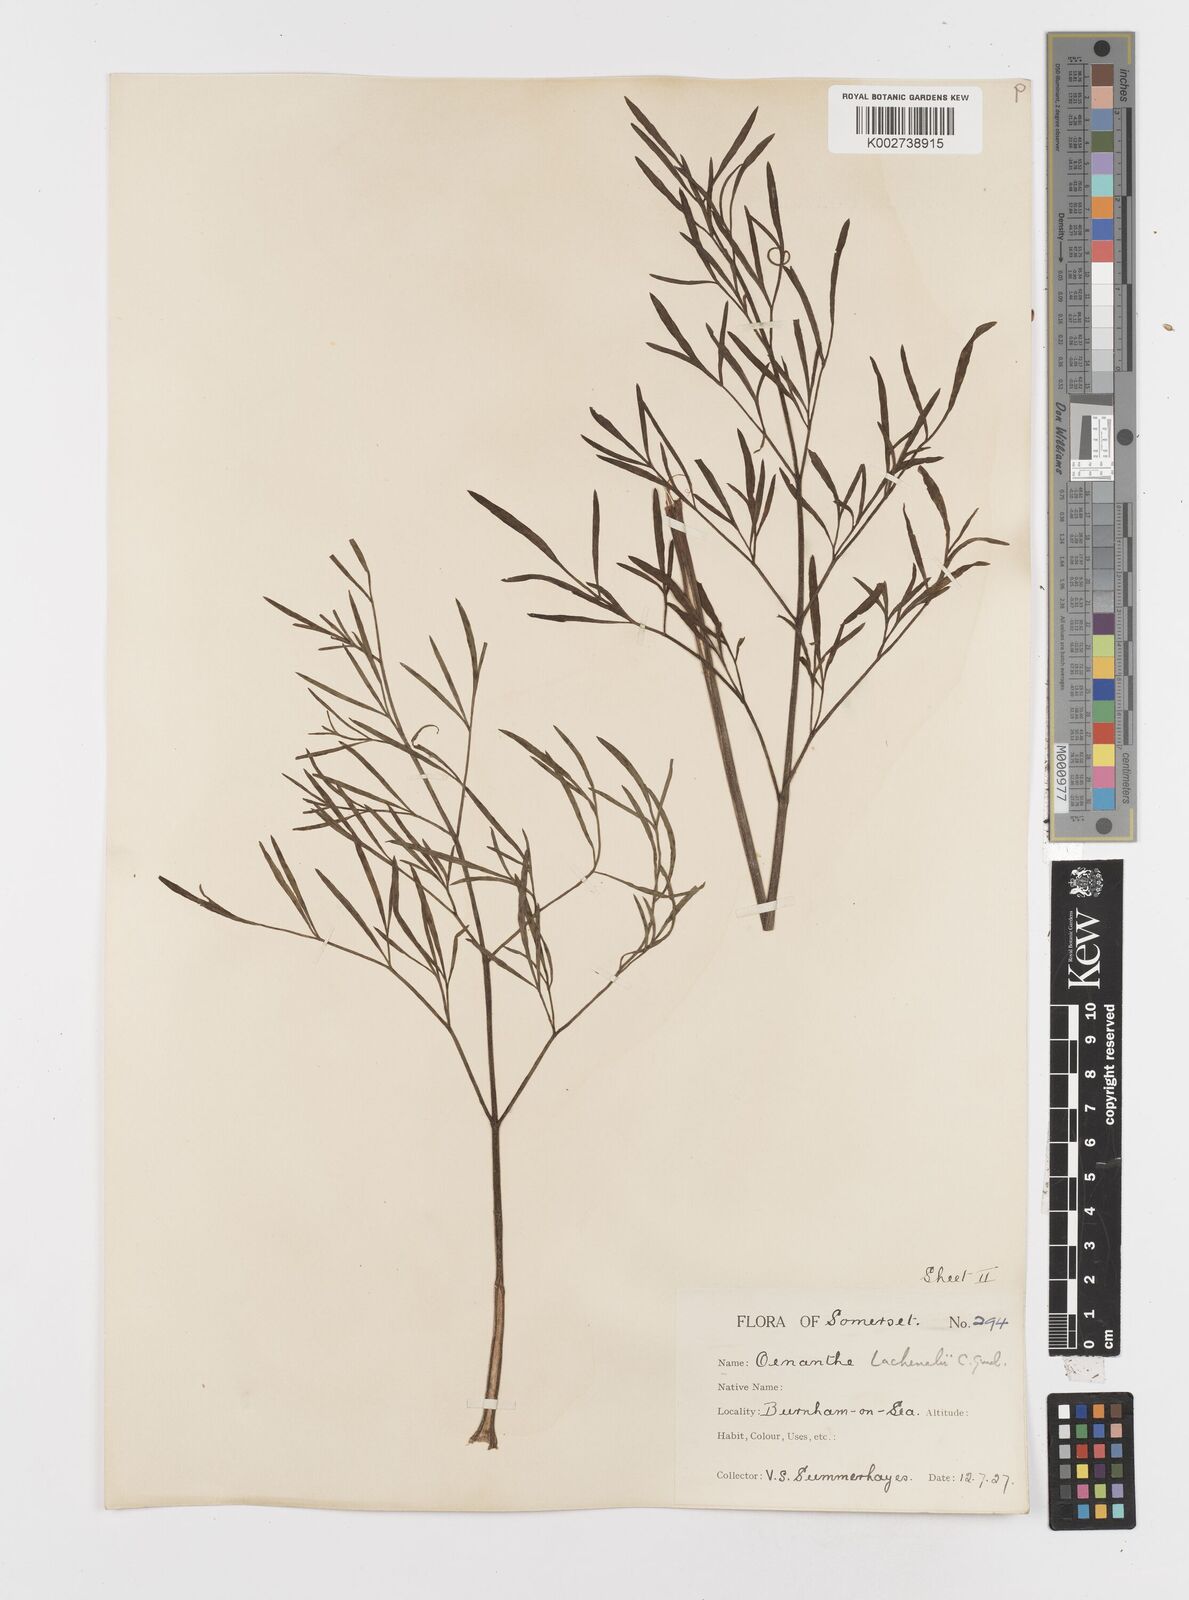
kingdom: Plantae
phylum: Tracheophyta
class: Magnoliopsida
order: Apiales
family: Apiaceae
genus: Oenanthe
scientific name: Oenanthe lachenalii
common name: Parsley water-dropwort
